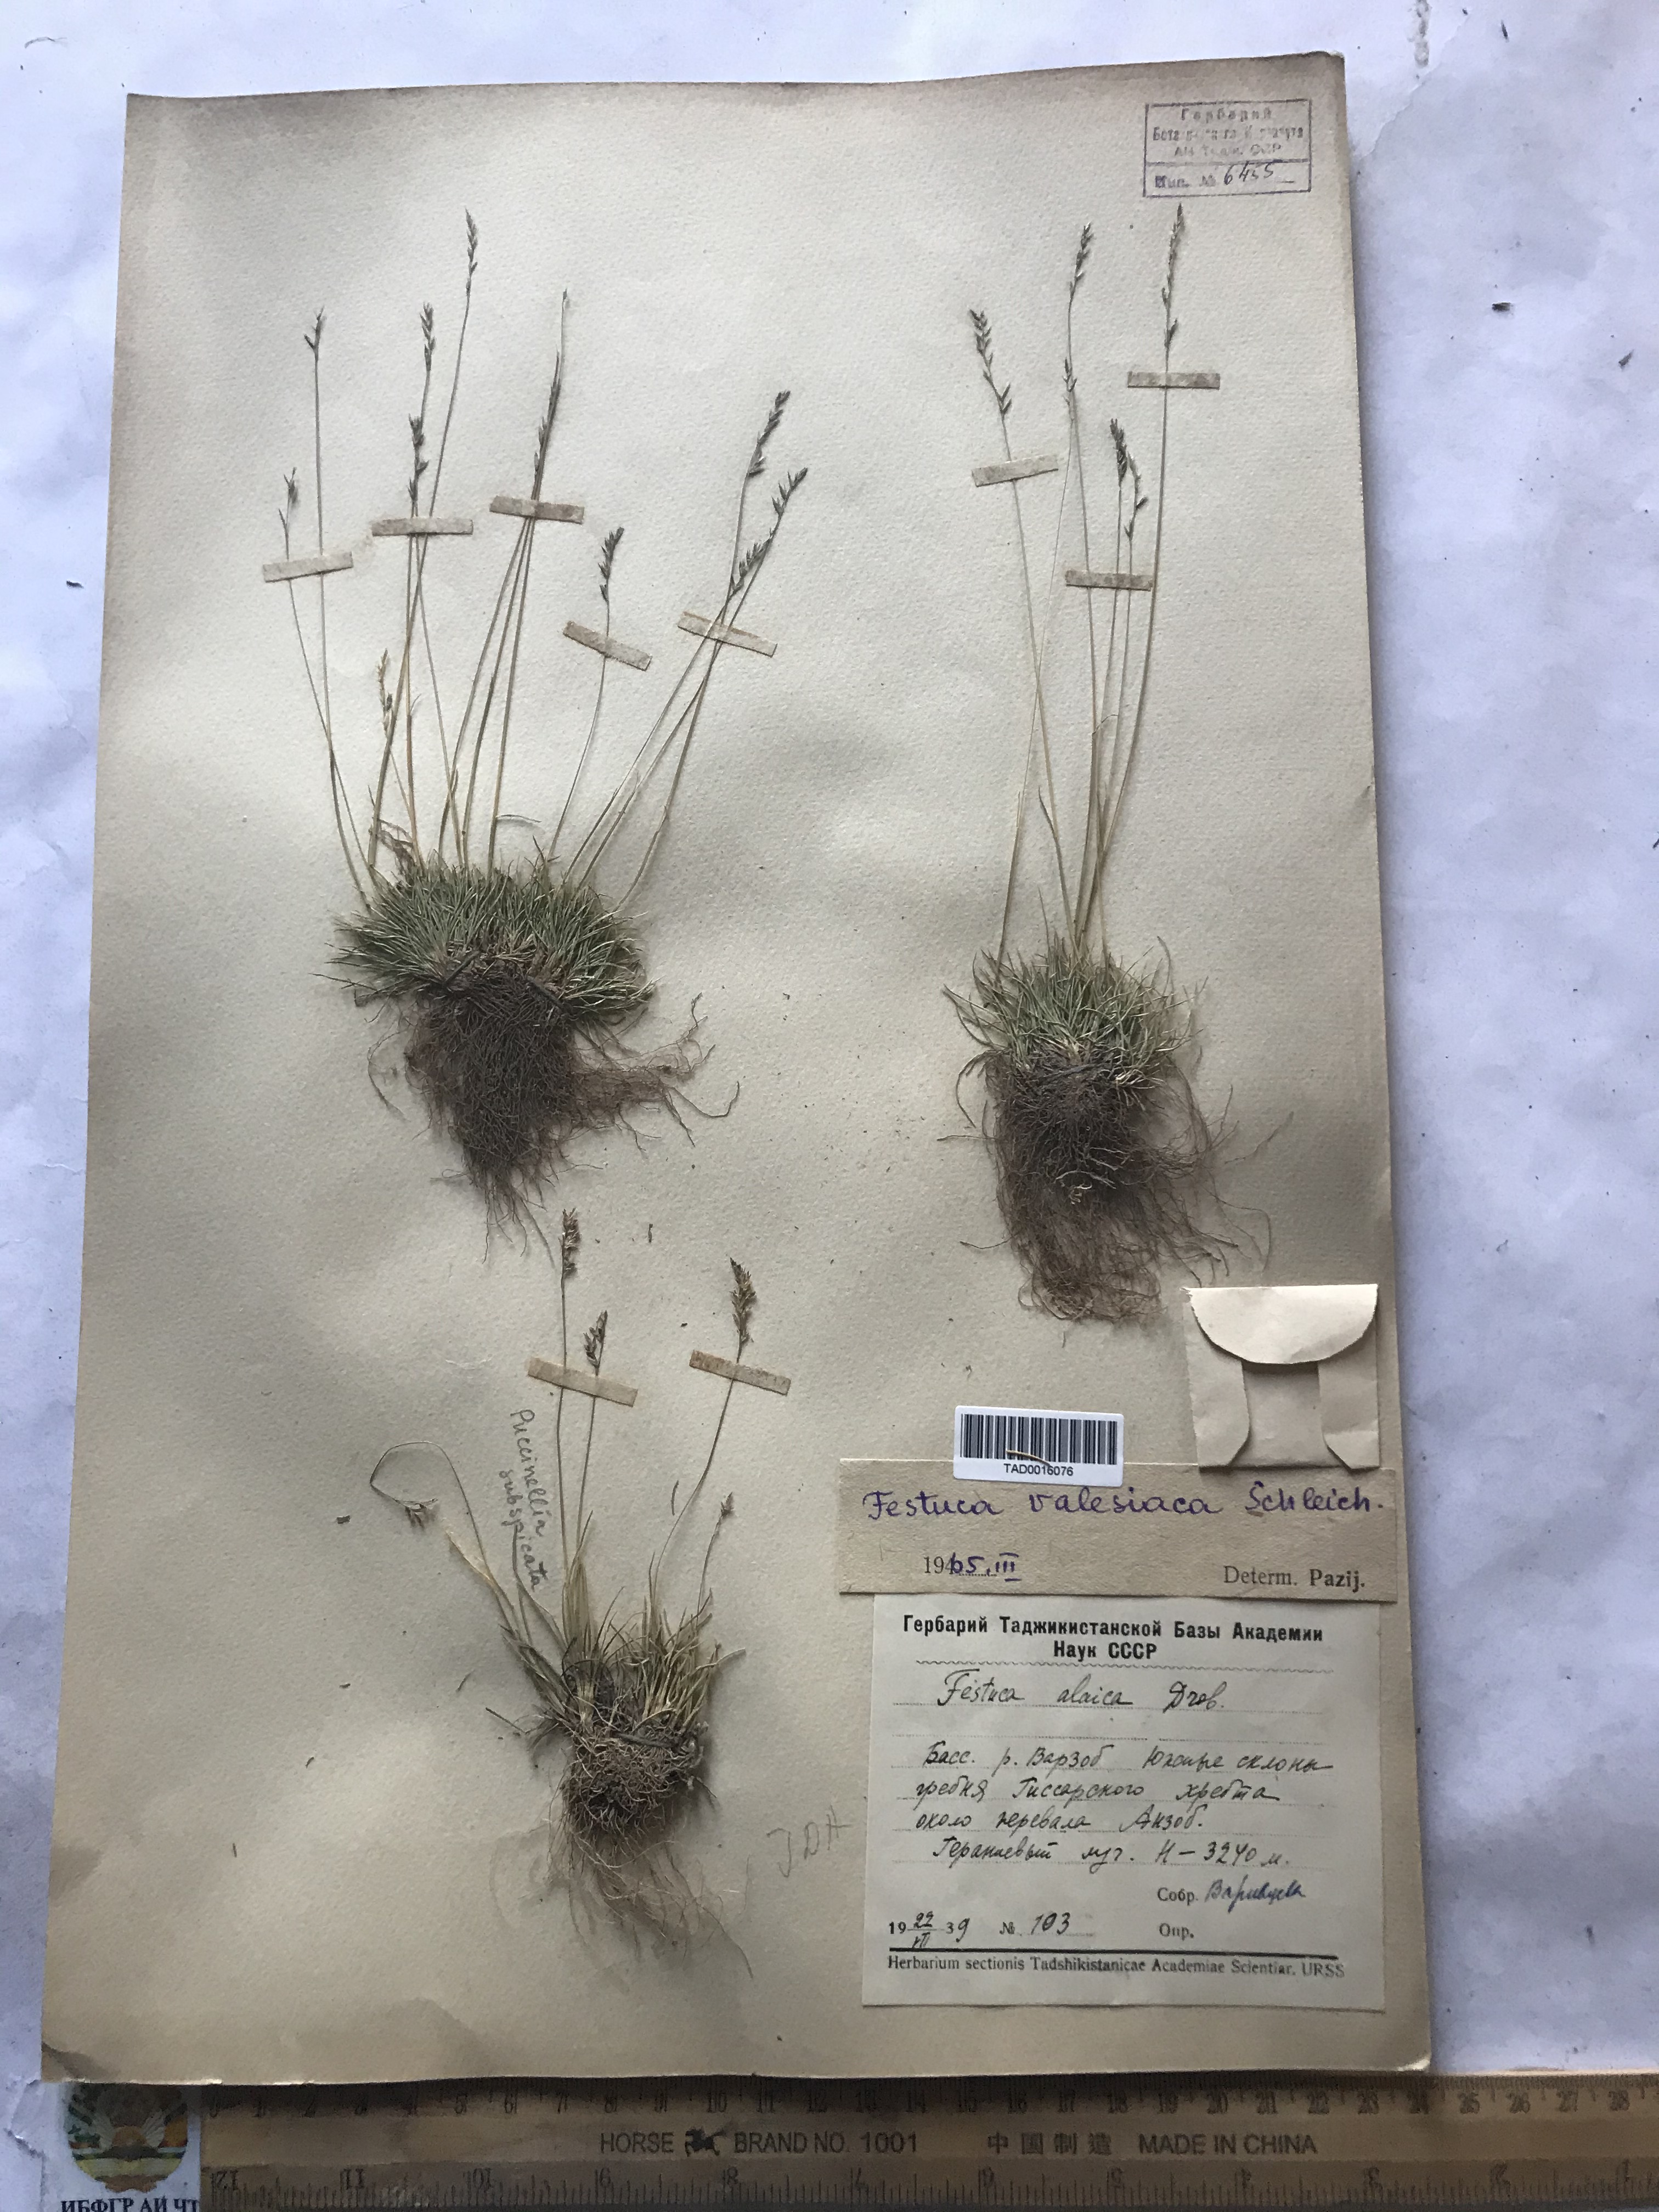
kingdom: Plantae
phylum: Tracheophyta
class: Liliopsida
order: Poales
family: Poaceae
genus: Festuca
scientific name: Festuca valesiaca
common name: Volga fescue
